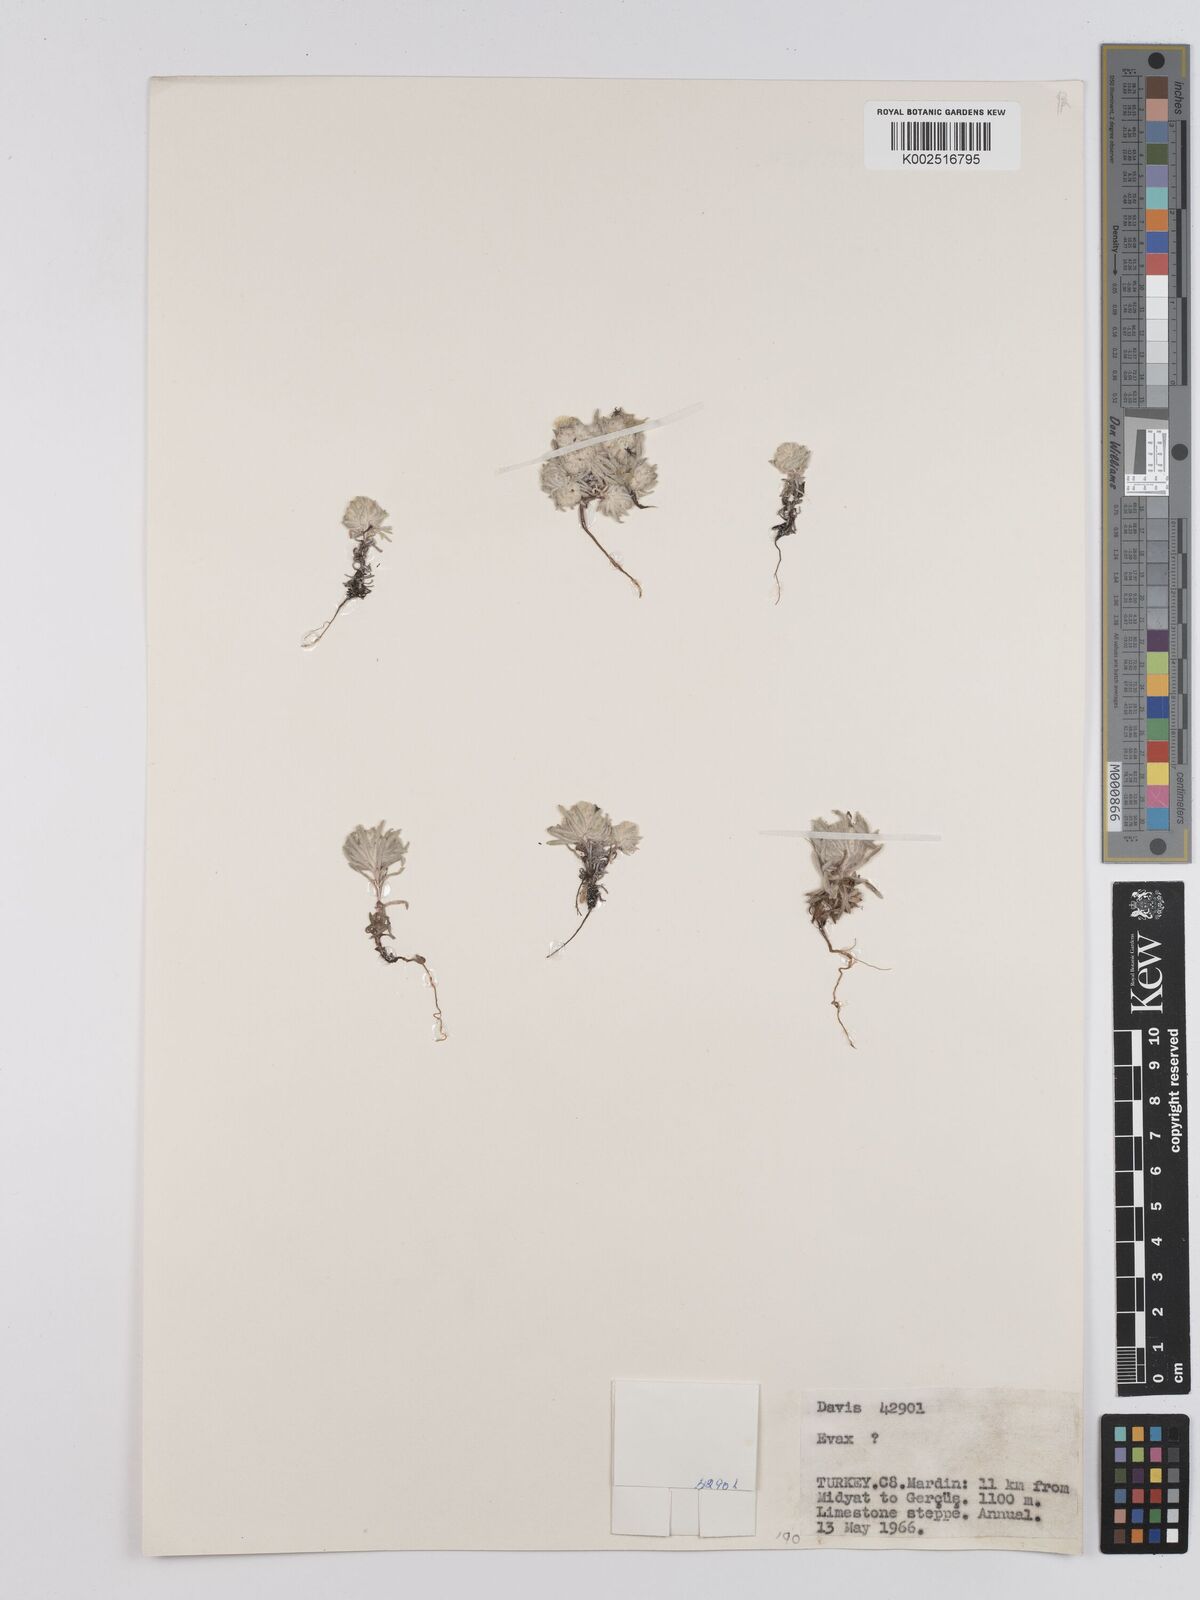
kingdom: Plantae
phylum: Tracheophyta
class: Magnoliopsida
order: Asterales
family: Asteraceae
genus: Filago
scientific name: Filago
